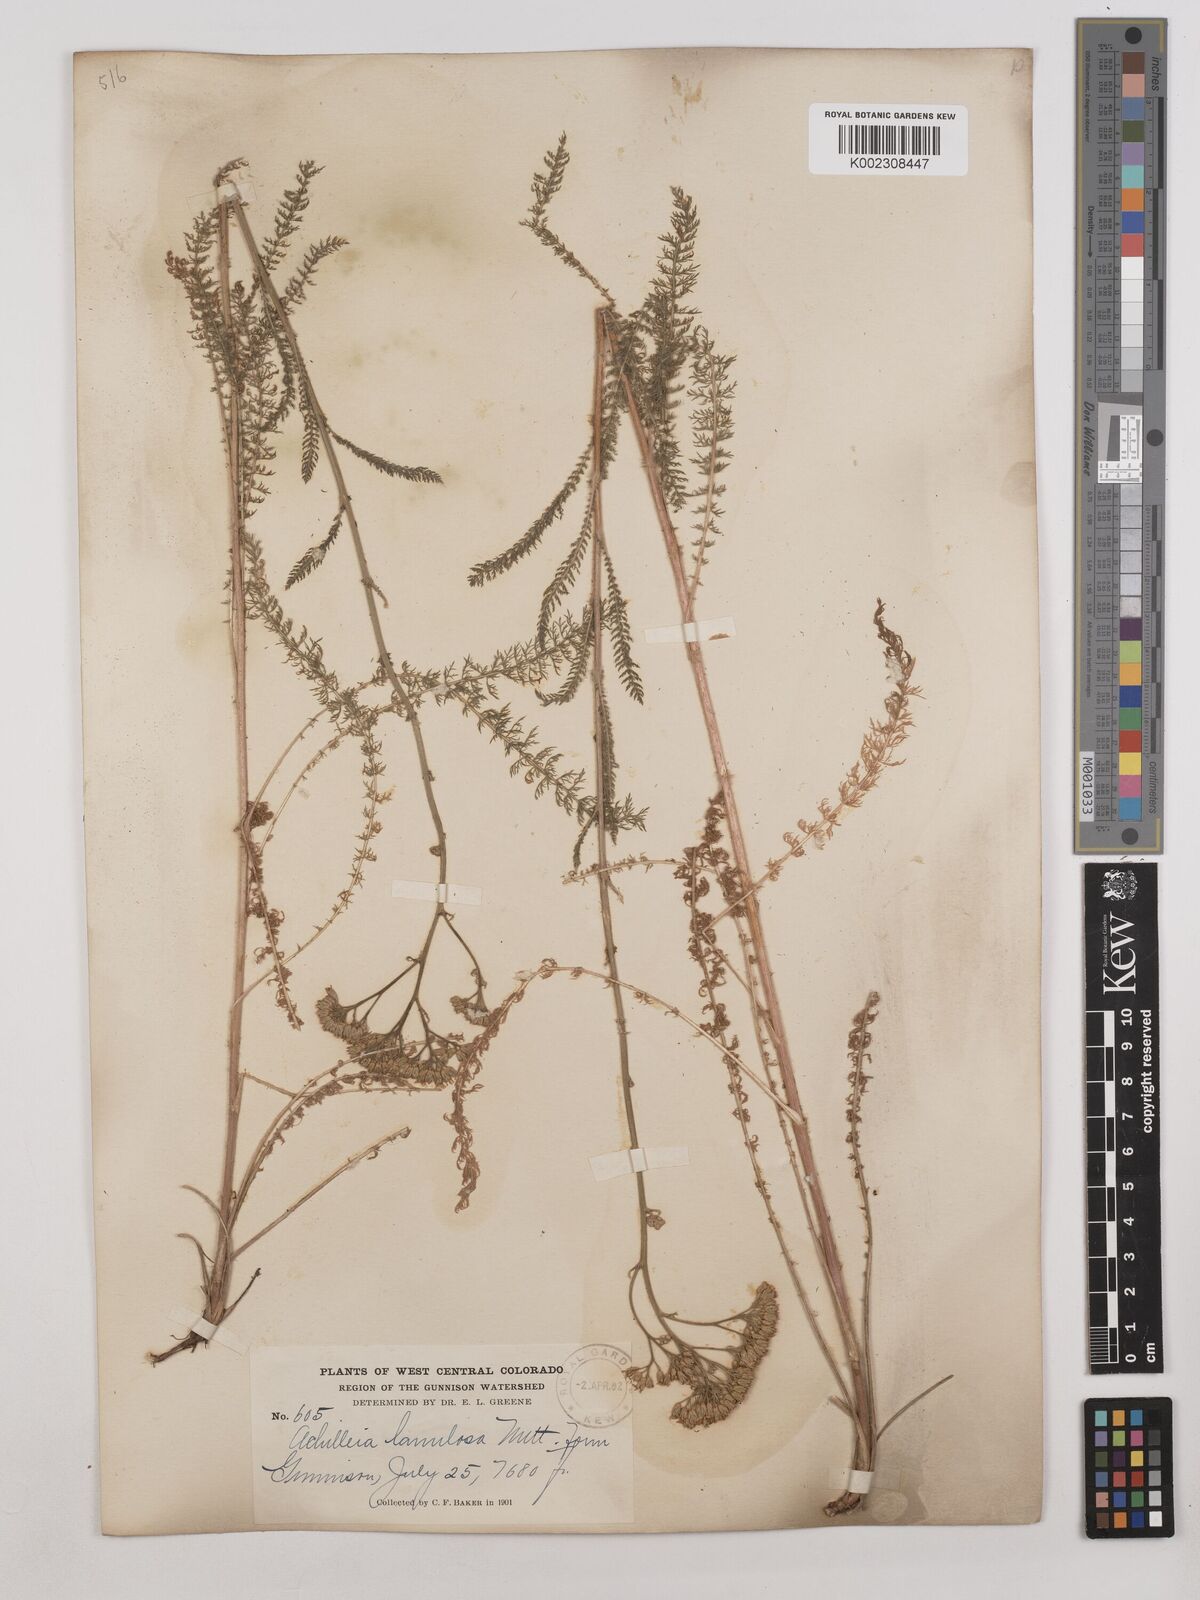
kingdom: Plantae
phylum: Tracheophyta
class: Magnoliopsida
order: Asterales
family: Asteraceae
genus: Achillea
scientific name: Achillea millefolium
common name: Yarrow
